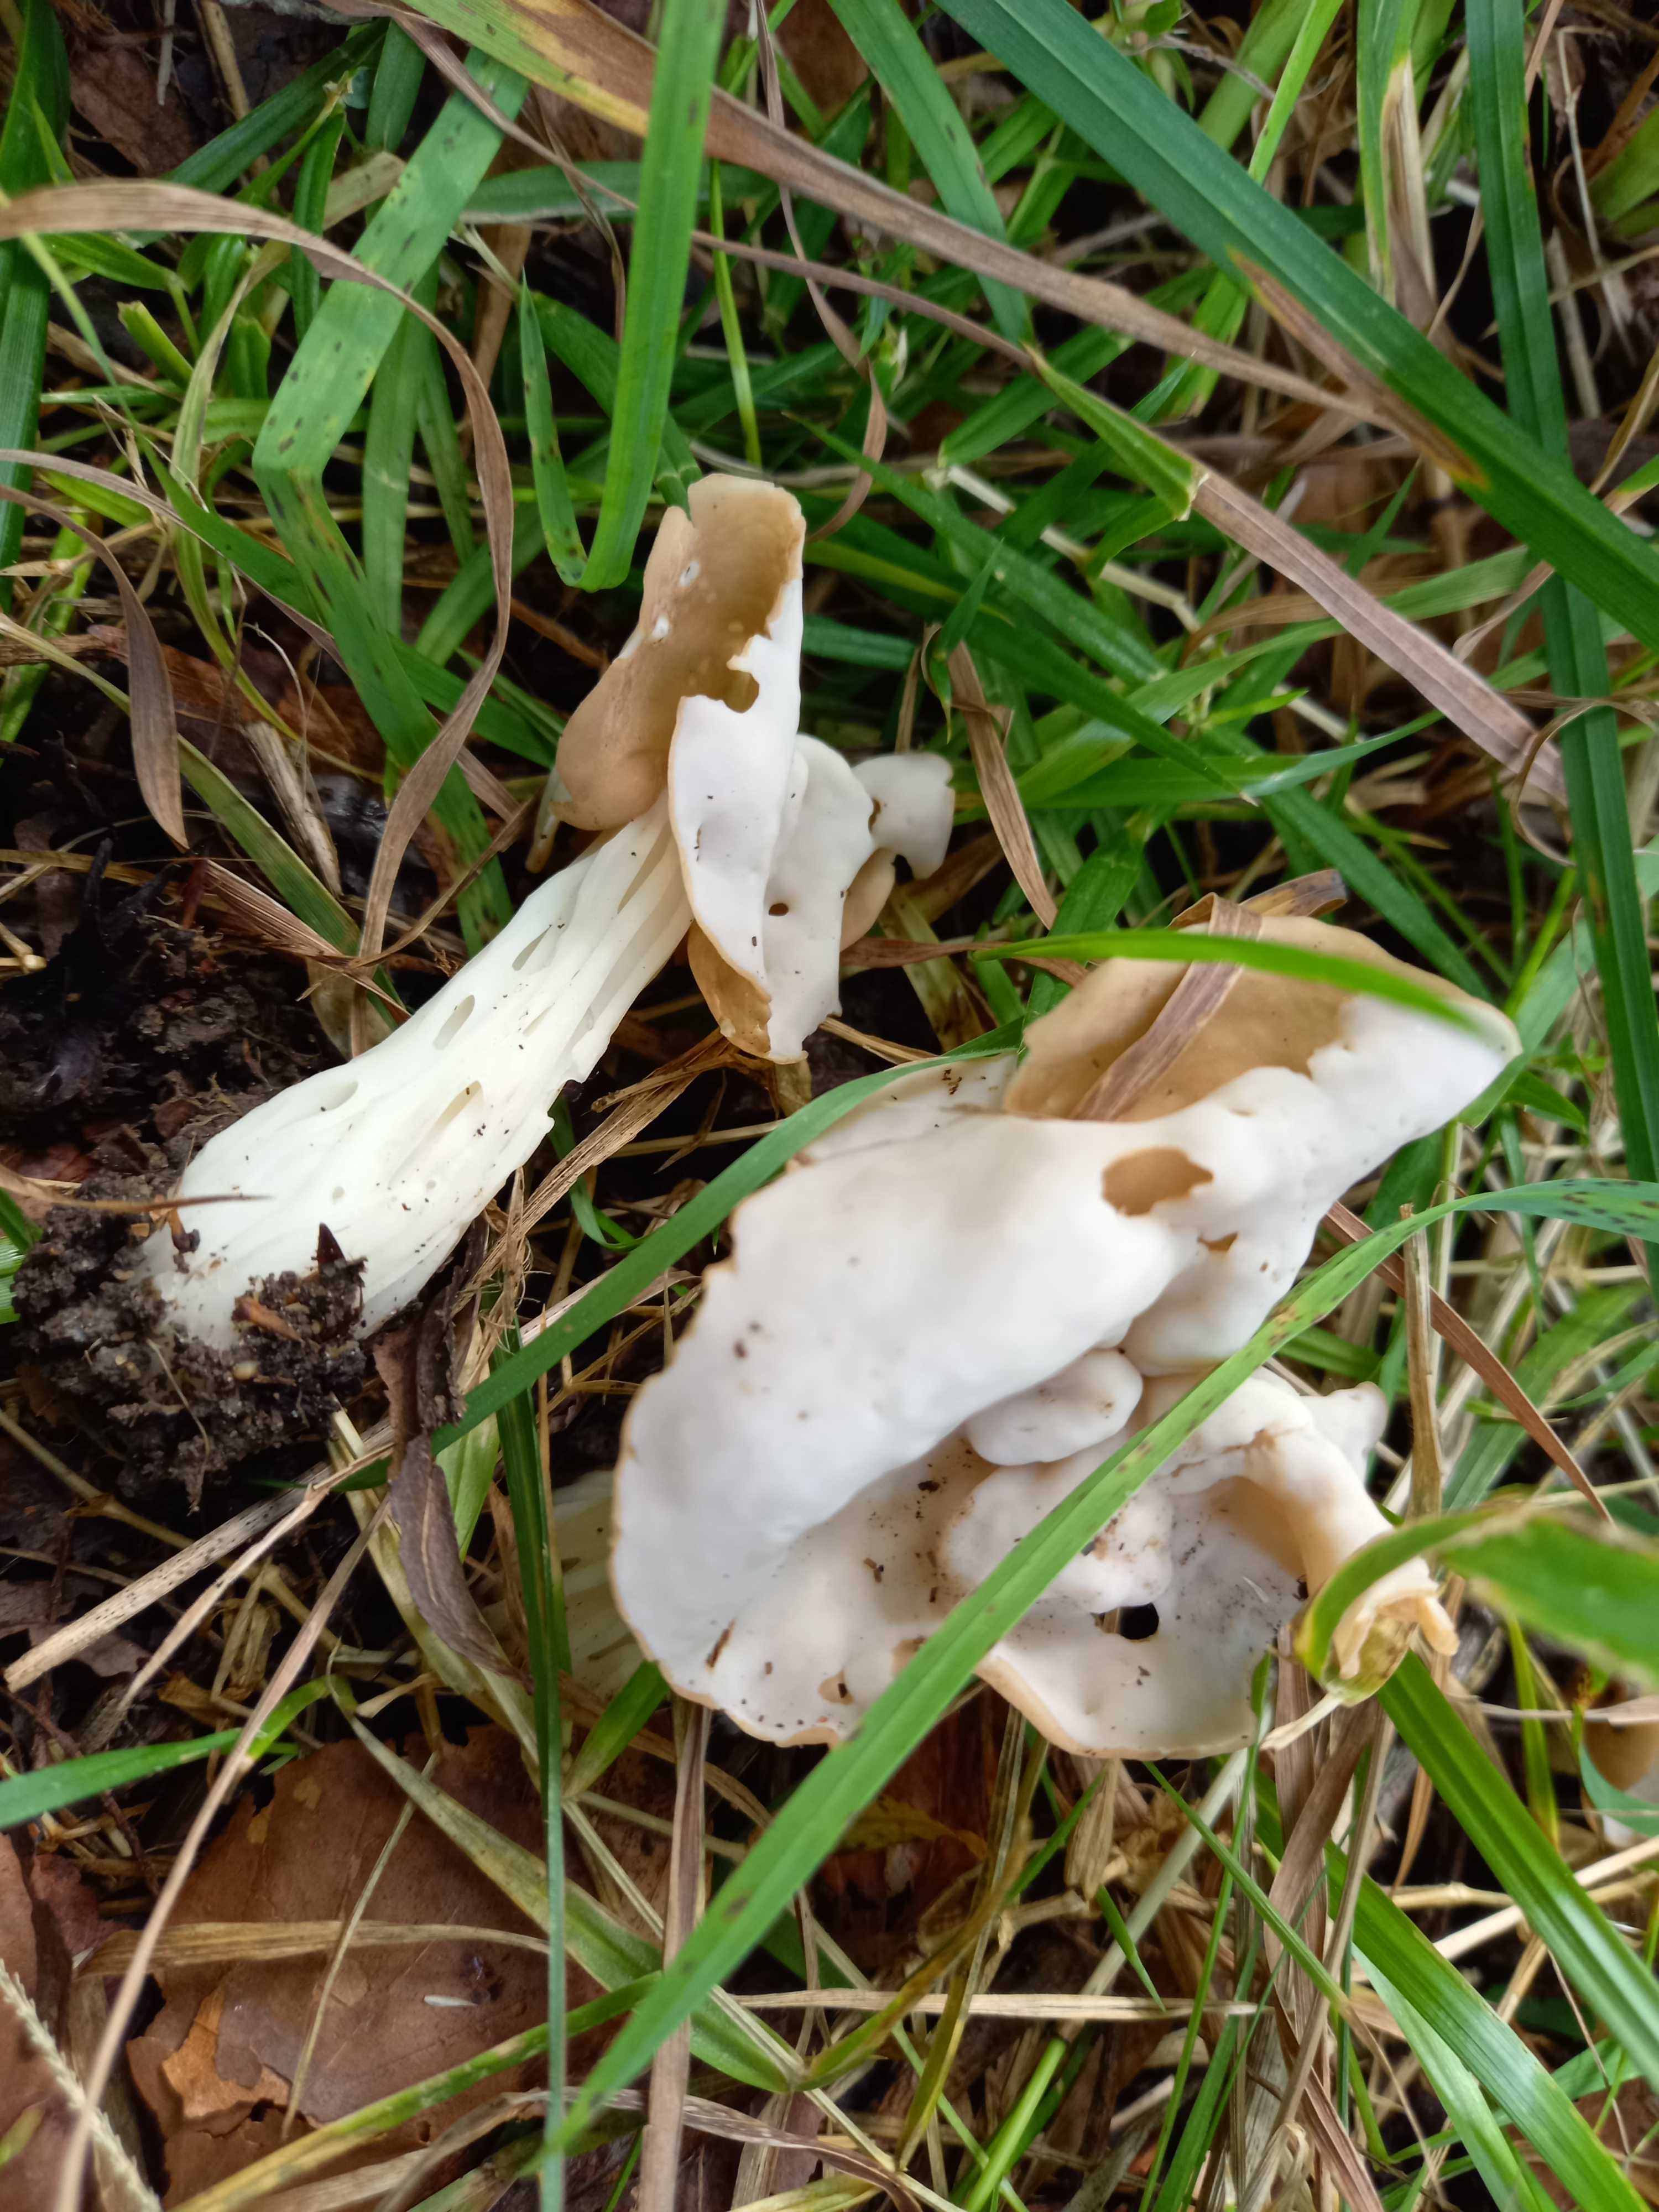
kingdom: Fungi
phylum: Ascomycota
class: Pezizomycetes
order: Pezizales
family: Helvellaceae
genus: Helvella
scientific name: Helvella crispa
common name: kruset foldhat
